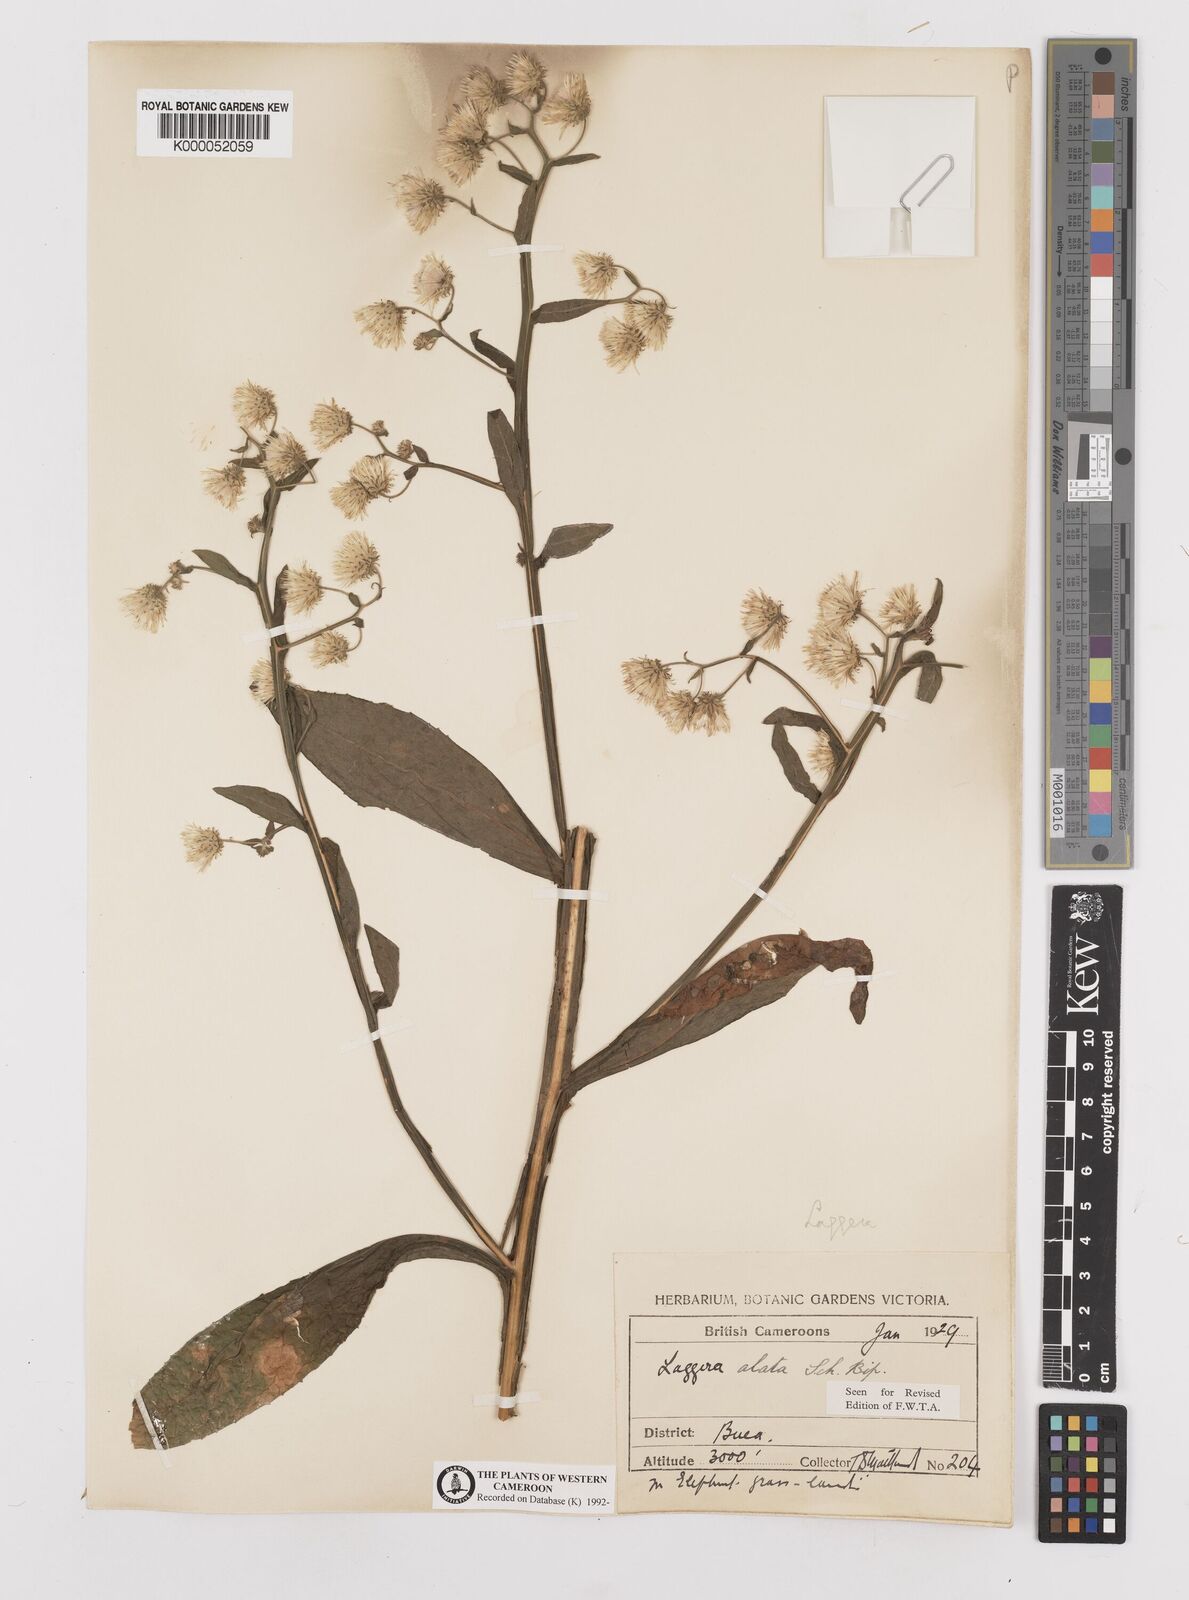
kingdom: Plantae
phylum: Tracheophyta
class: Magnoliopsida
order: Asterales
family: Asteraceae
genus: Laggera
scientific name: Laggera crispata
